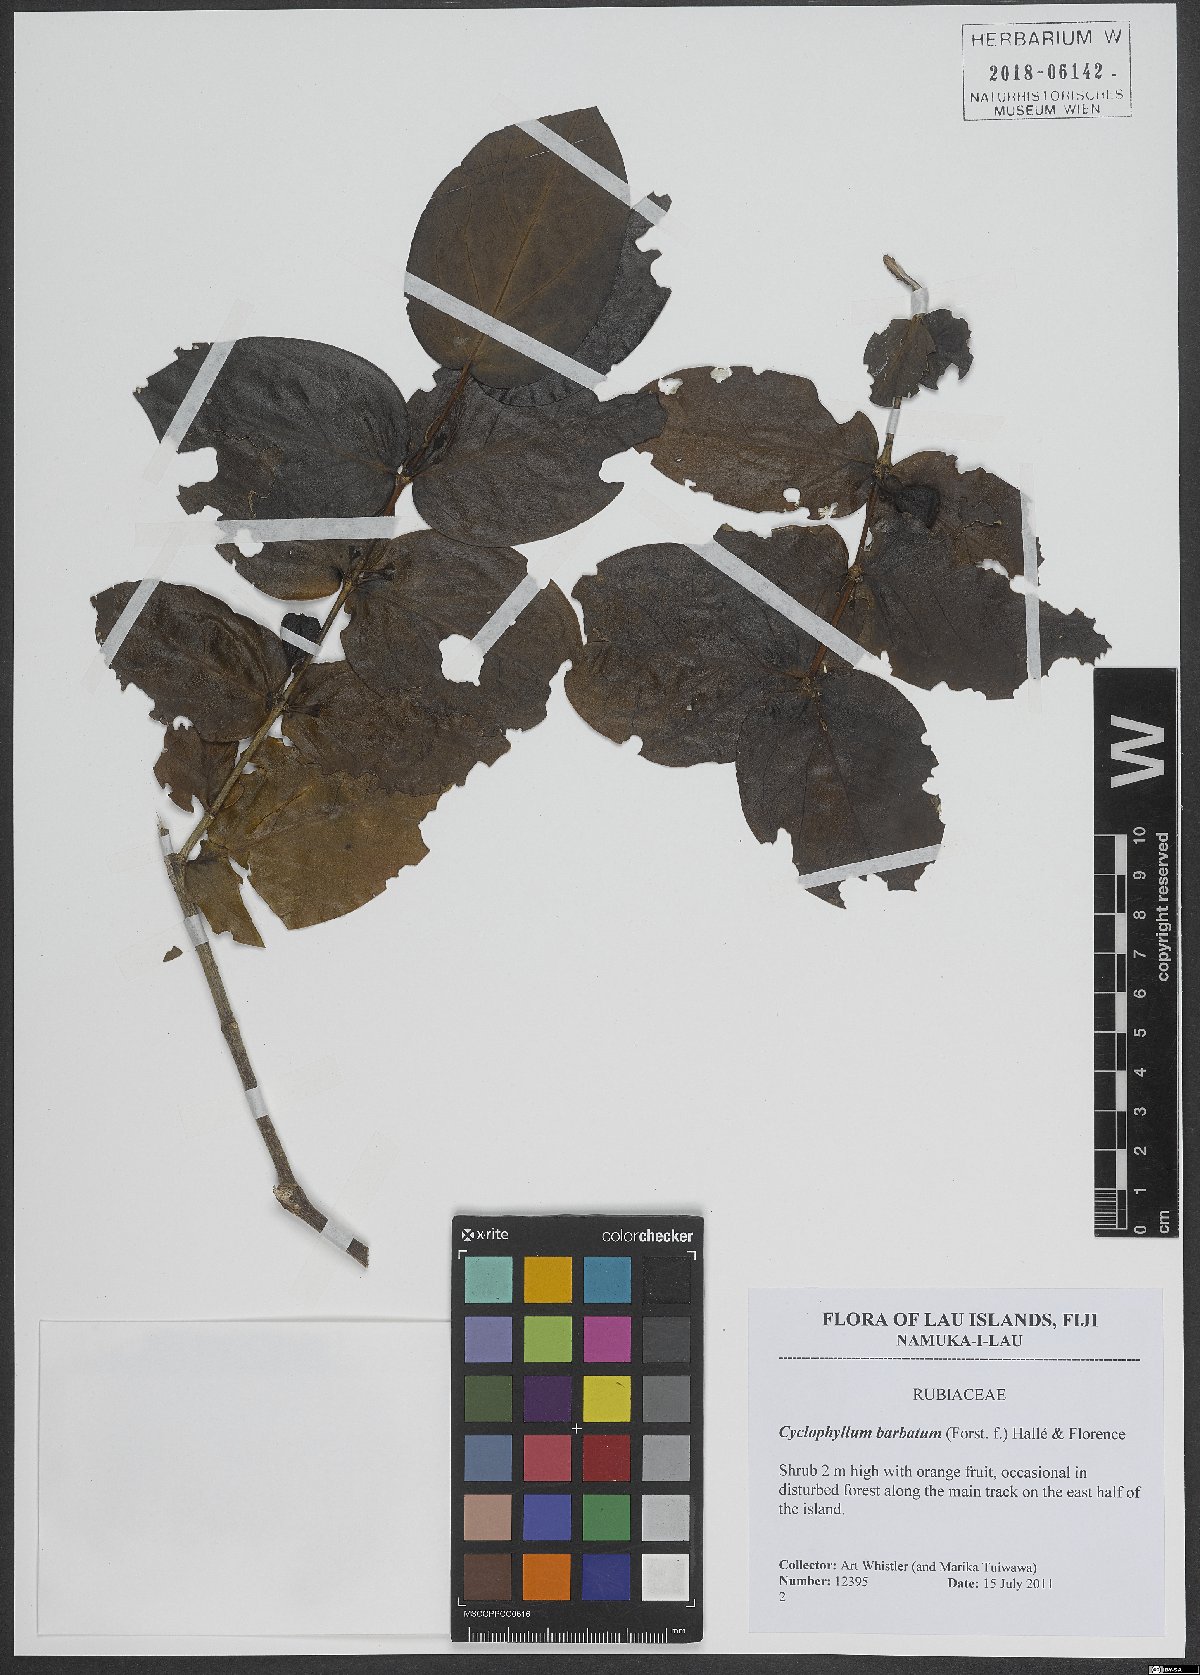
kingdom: Plantae
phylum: Tracheophyta
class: Magnoliopsida
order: Gentianales
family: Rubiaceae
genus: Cyclophyllum
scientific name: Cyclophyllum barbatum
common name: Cyclophyllum
